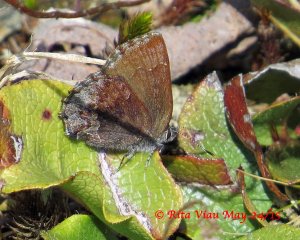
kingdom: Animalia
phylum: Arthropoda
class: Insecta
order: Lepidoptera
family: Lycaenidae
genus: Callophrys
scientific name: Callophrys polios
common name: Hoary Elfin
